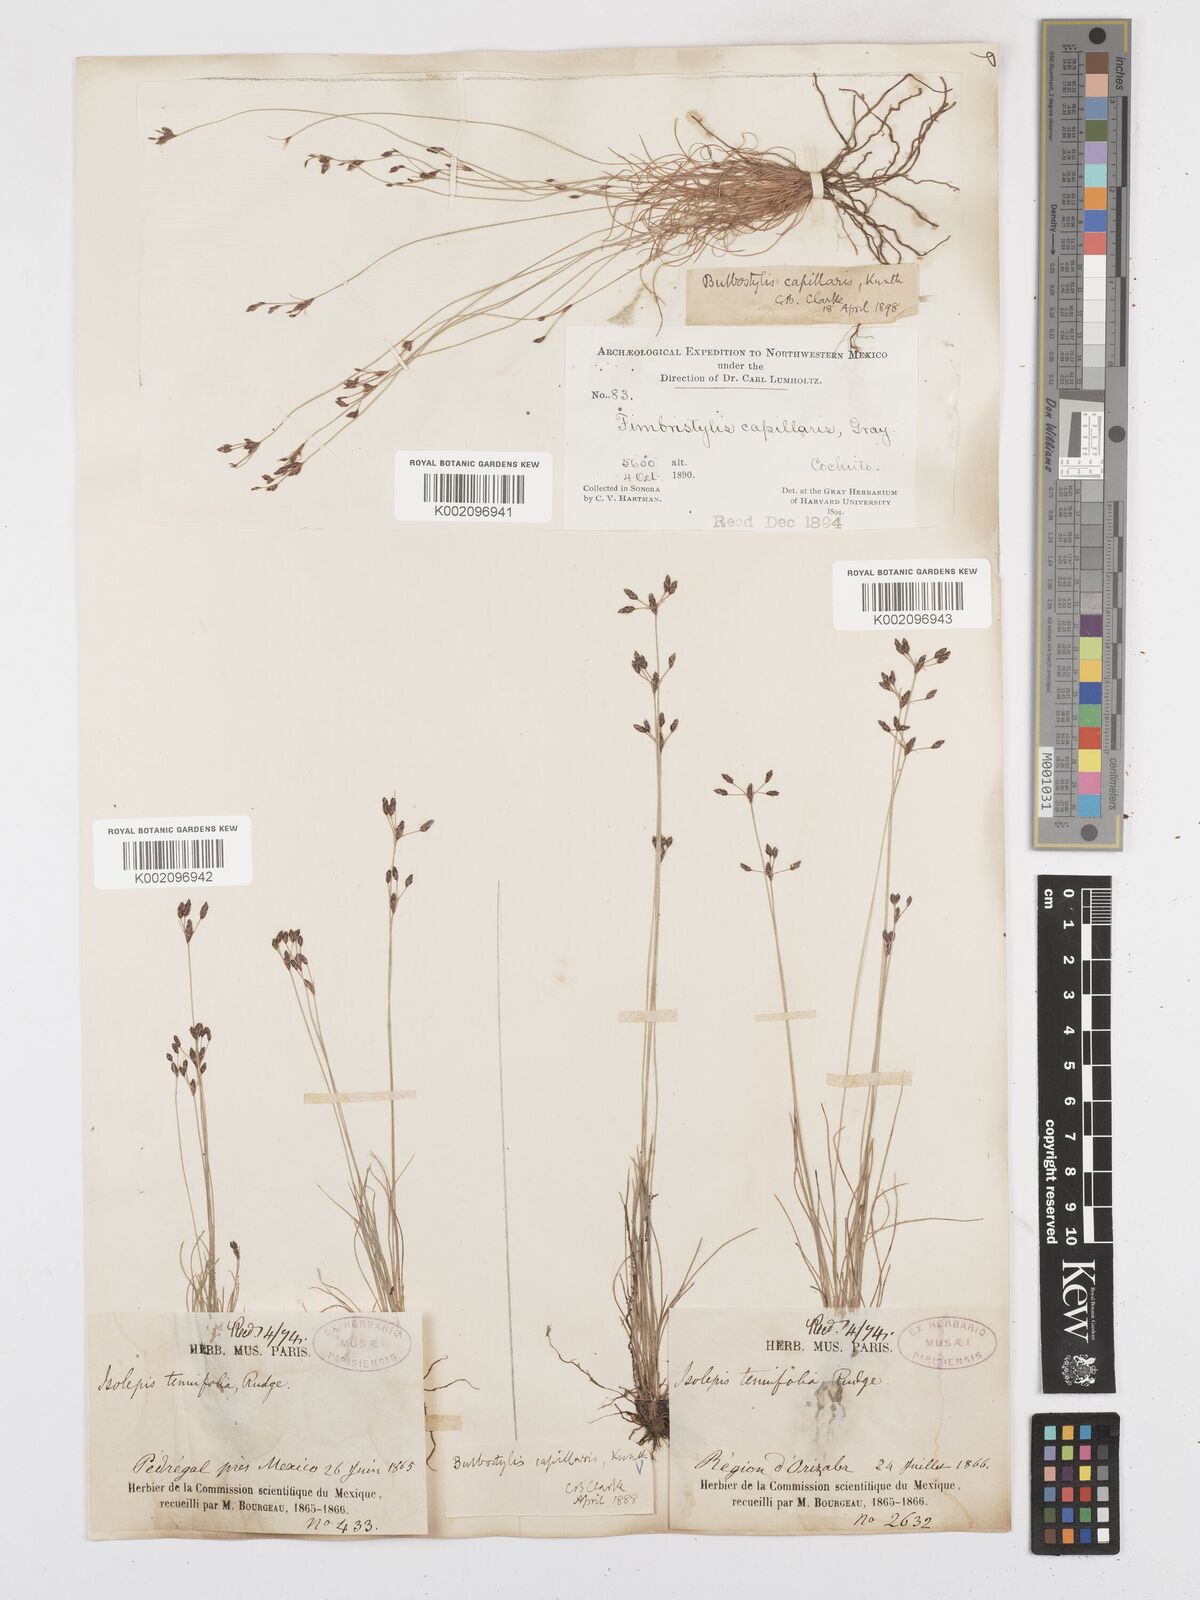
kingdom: Plantae
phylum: Tracheophyta
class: Liliopsida
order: Poales
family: Cyperaceae
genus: Bulbostylis
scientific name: Bulbostylis capillaris
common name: Densetuft hairsedge
